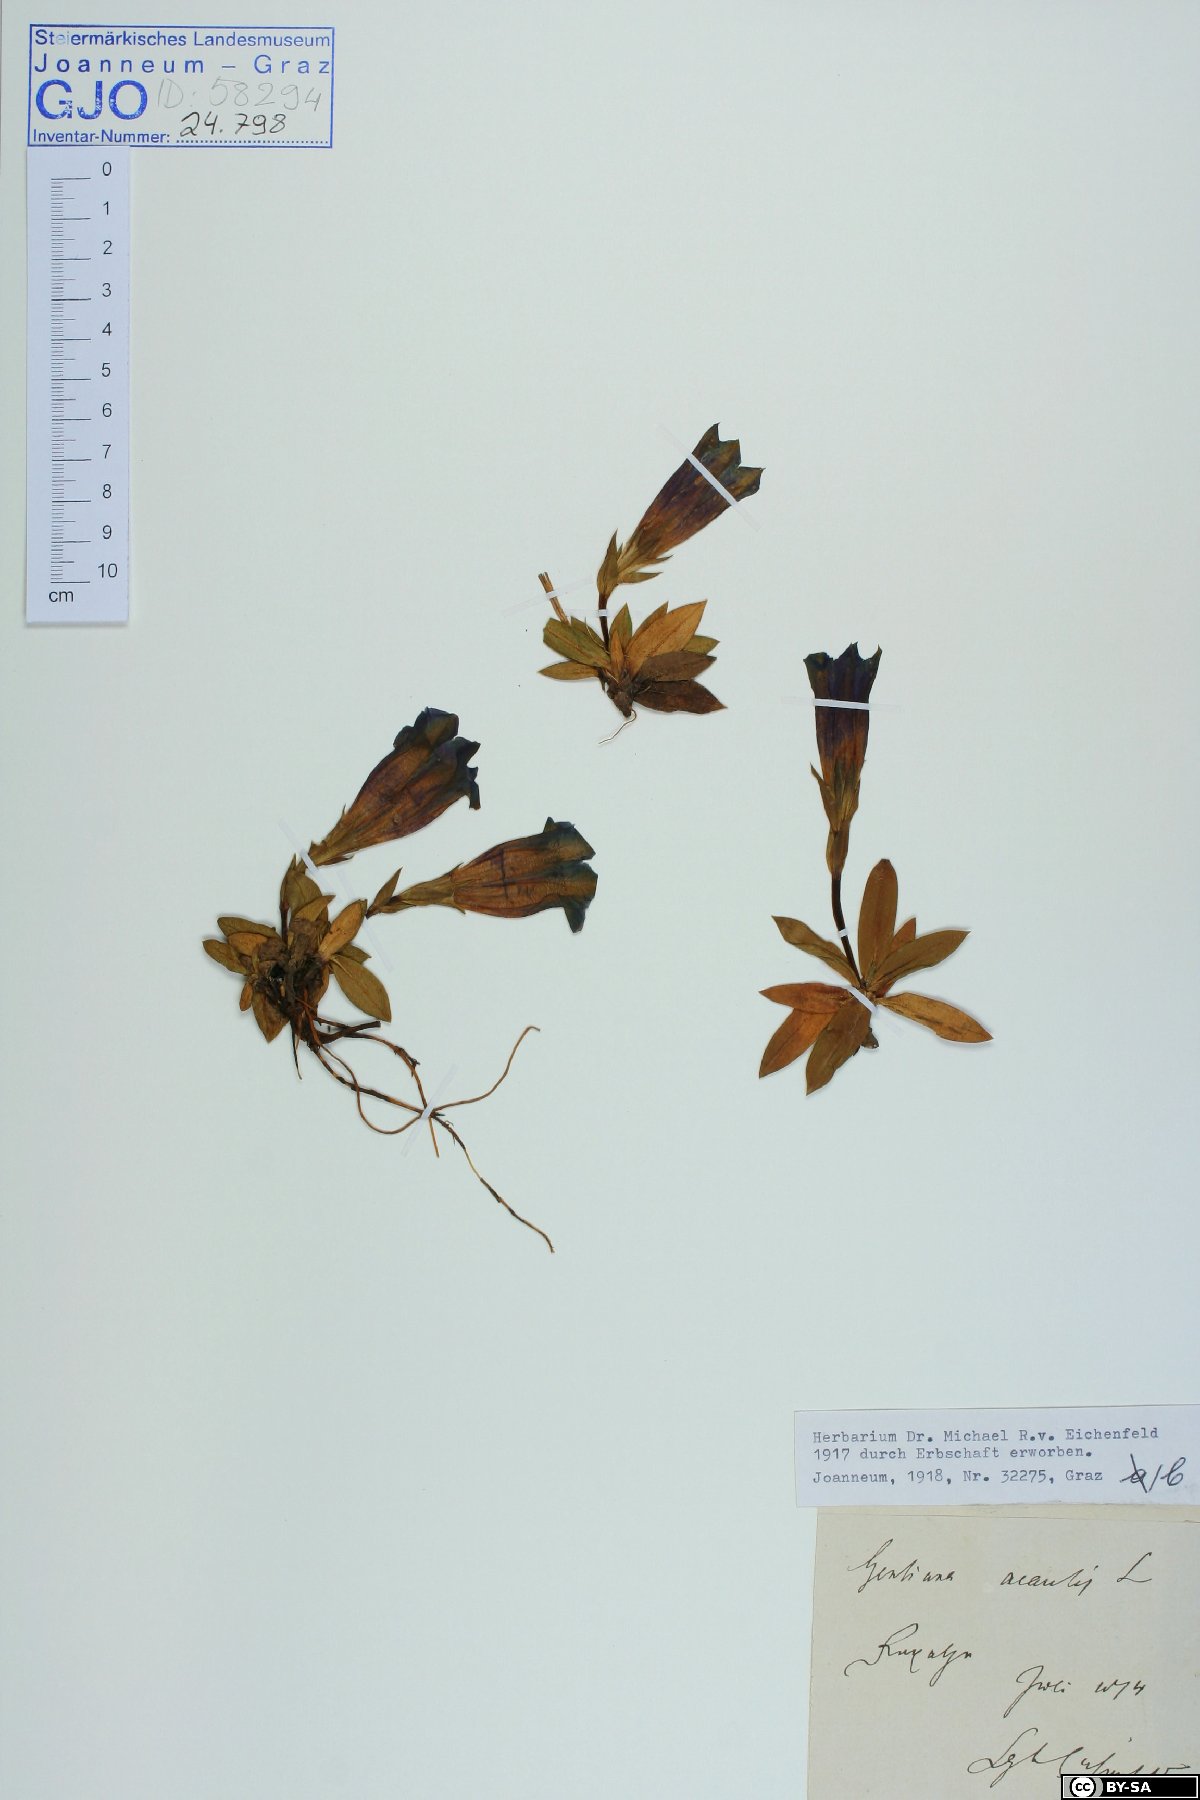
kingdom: Plantae
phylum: Tracheophyta
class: Magnoliopsida
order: Gentianales
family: Gentianaceae
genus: Gentiana
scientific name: Gentiana clusii
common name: Trumpet gentian
